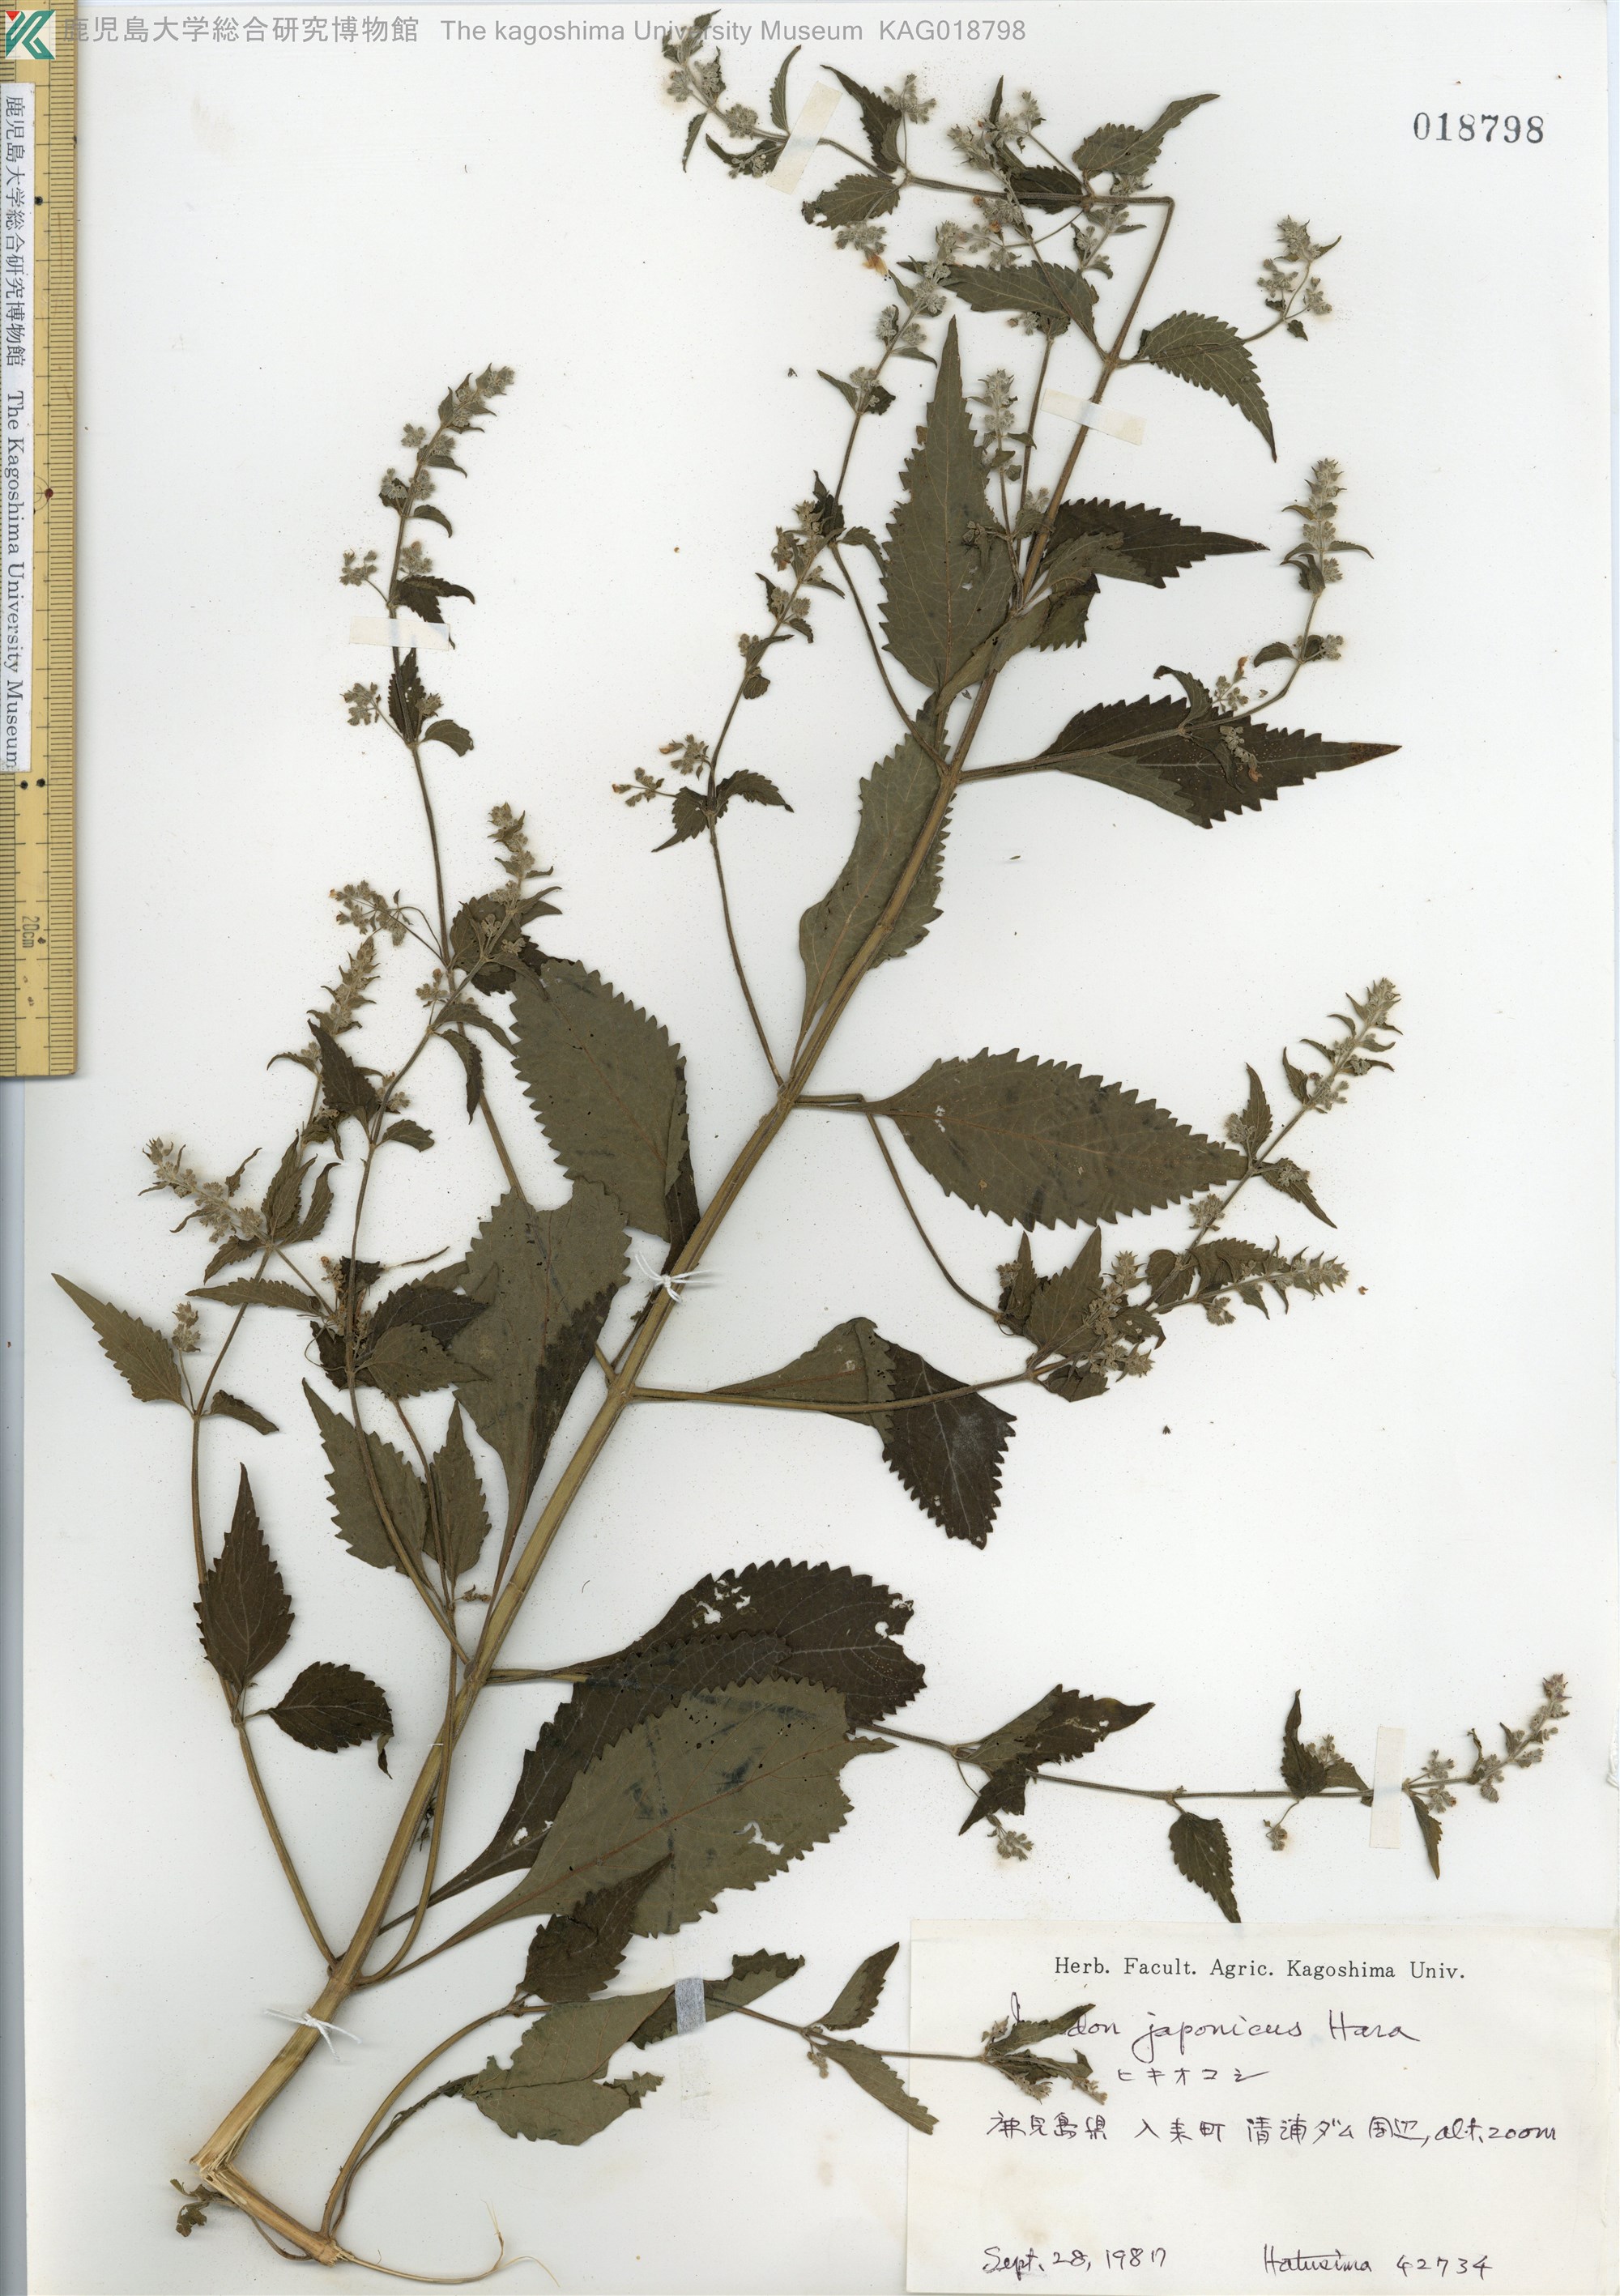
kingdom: Plantae
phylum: Tracheophyta
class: Magnoliopsida
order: Lamiales
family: Lamiaceae
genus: Isodon
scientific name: Isodon japonicus
